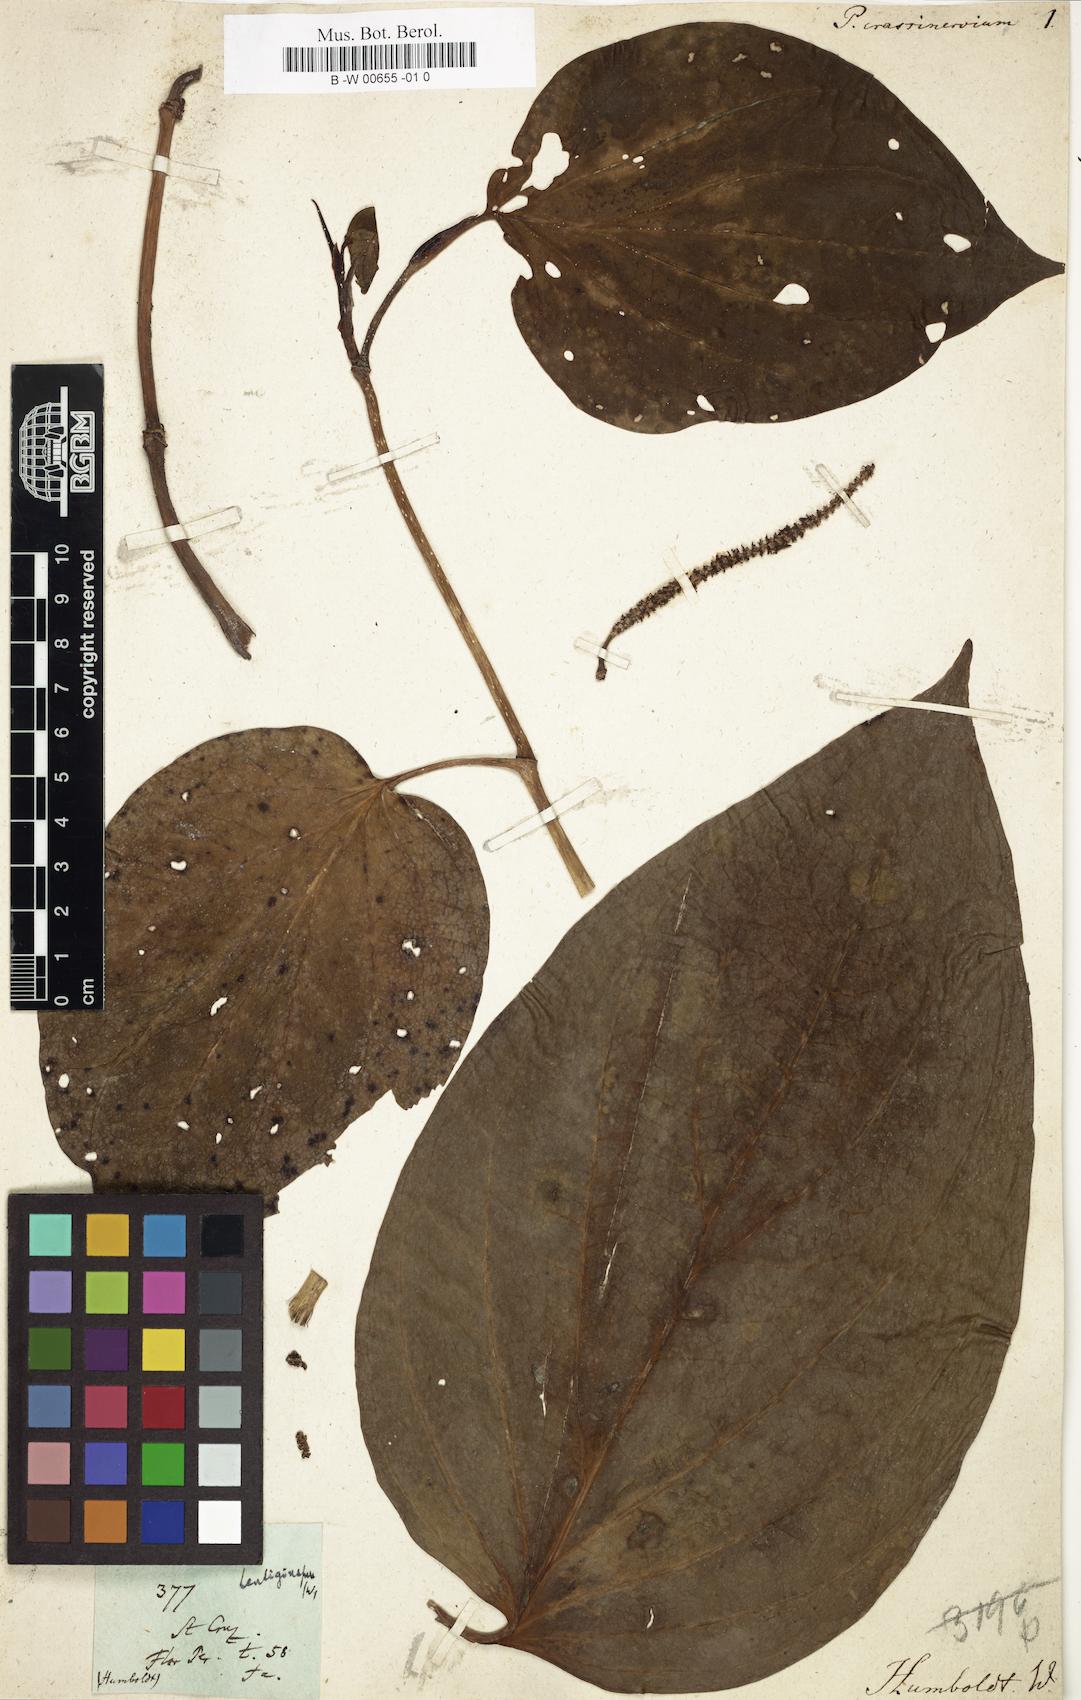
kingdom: Plantae
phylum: Tracheophyta
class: Magnoliopsida
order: Piperales
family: Piperaceae
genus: Piper
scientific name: Piper crassinervium
